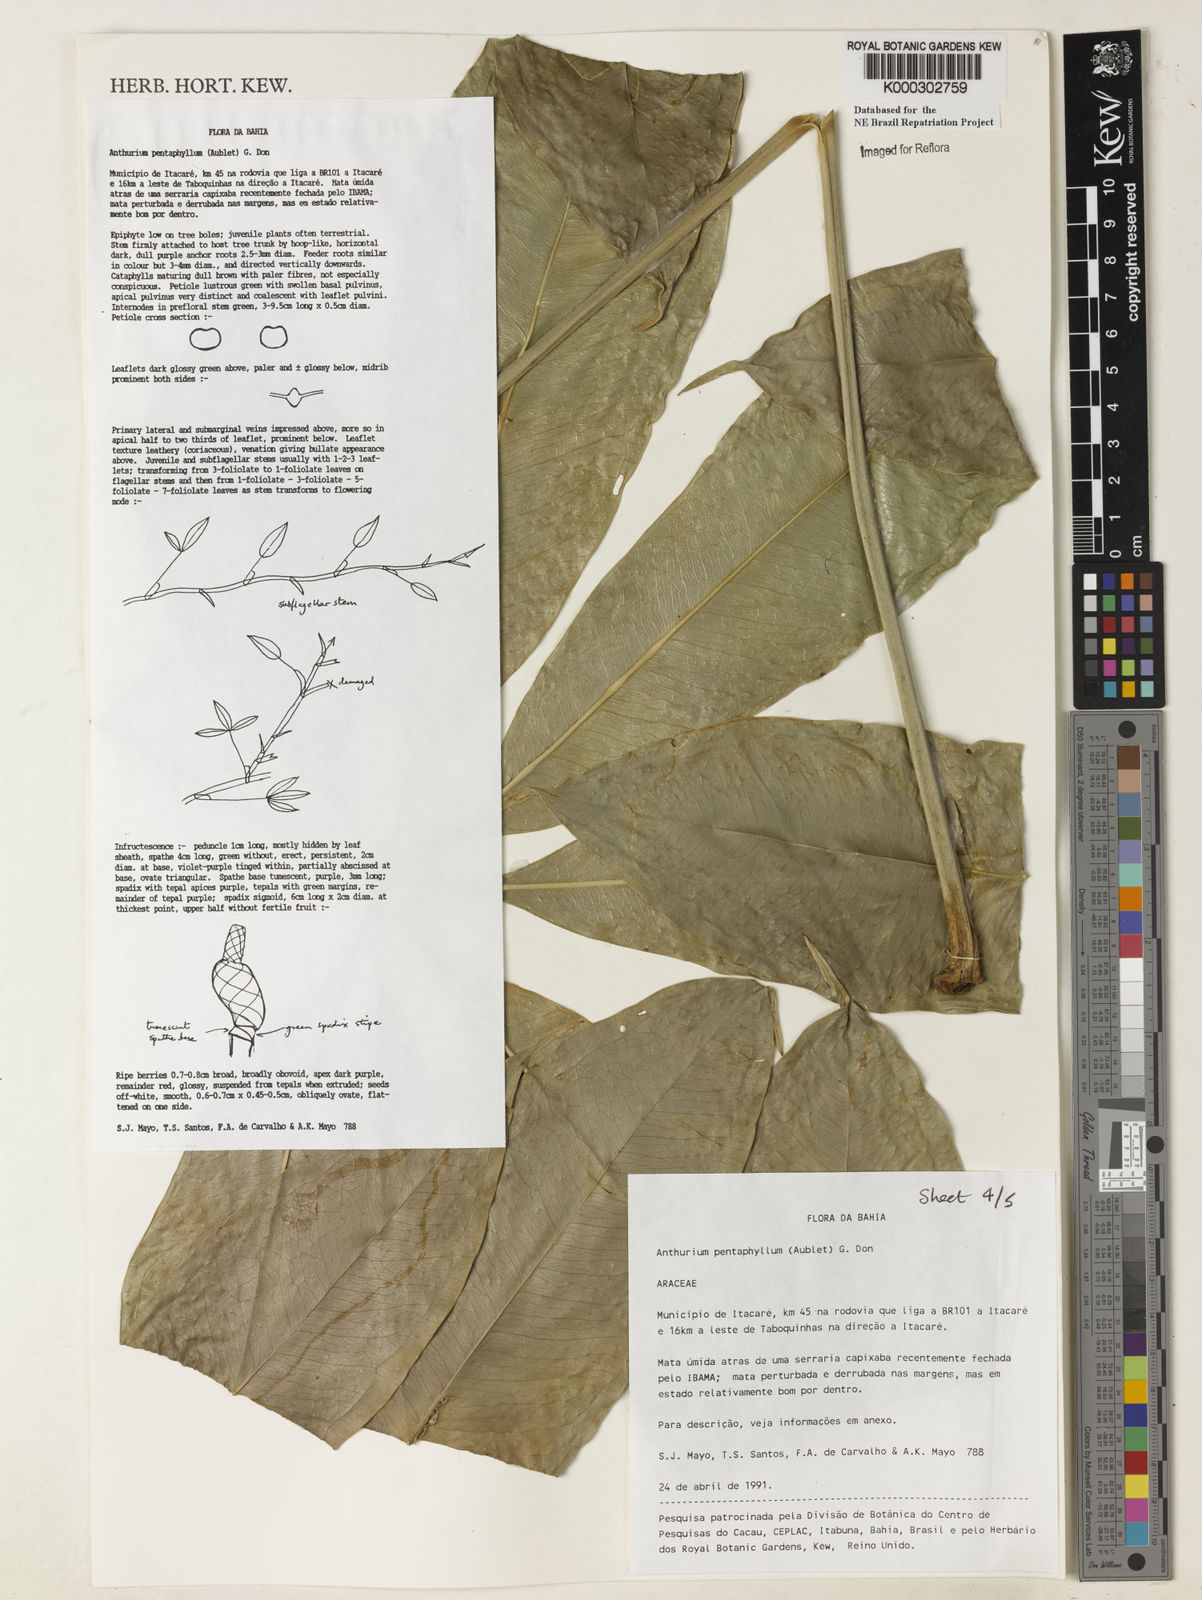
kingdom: Plantae
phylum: Tracheophyta
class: Liliopsida
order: Alismatales
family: Araceae
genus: Anthurium
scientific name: Anthurium pentaphyllum
